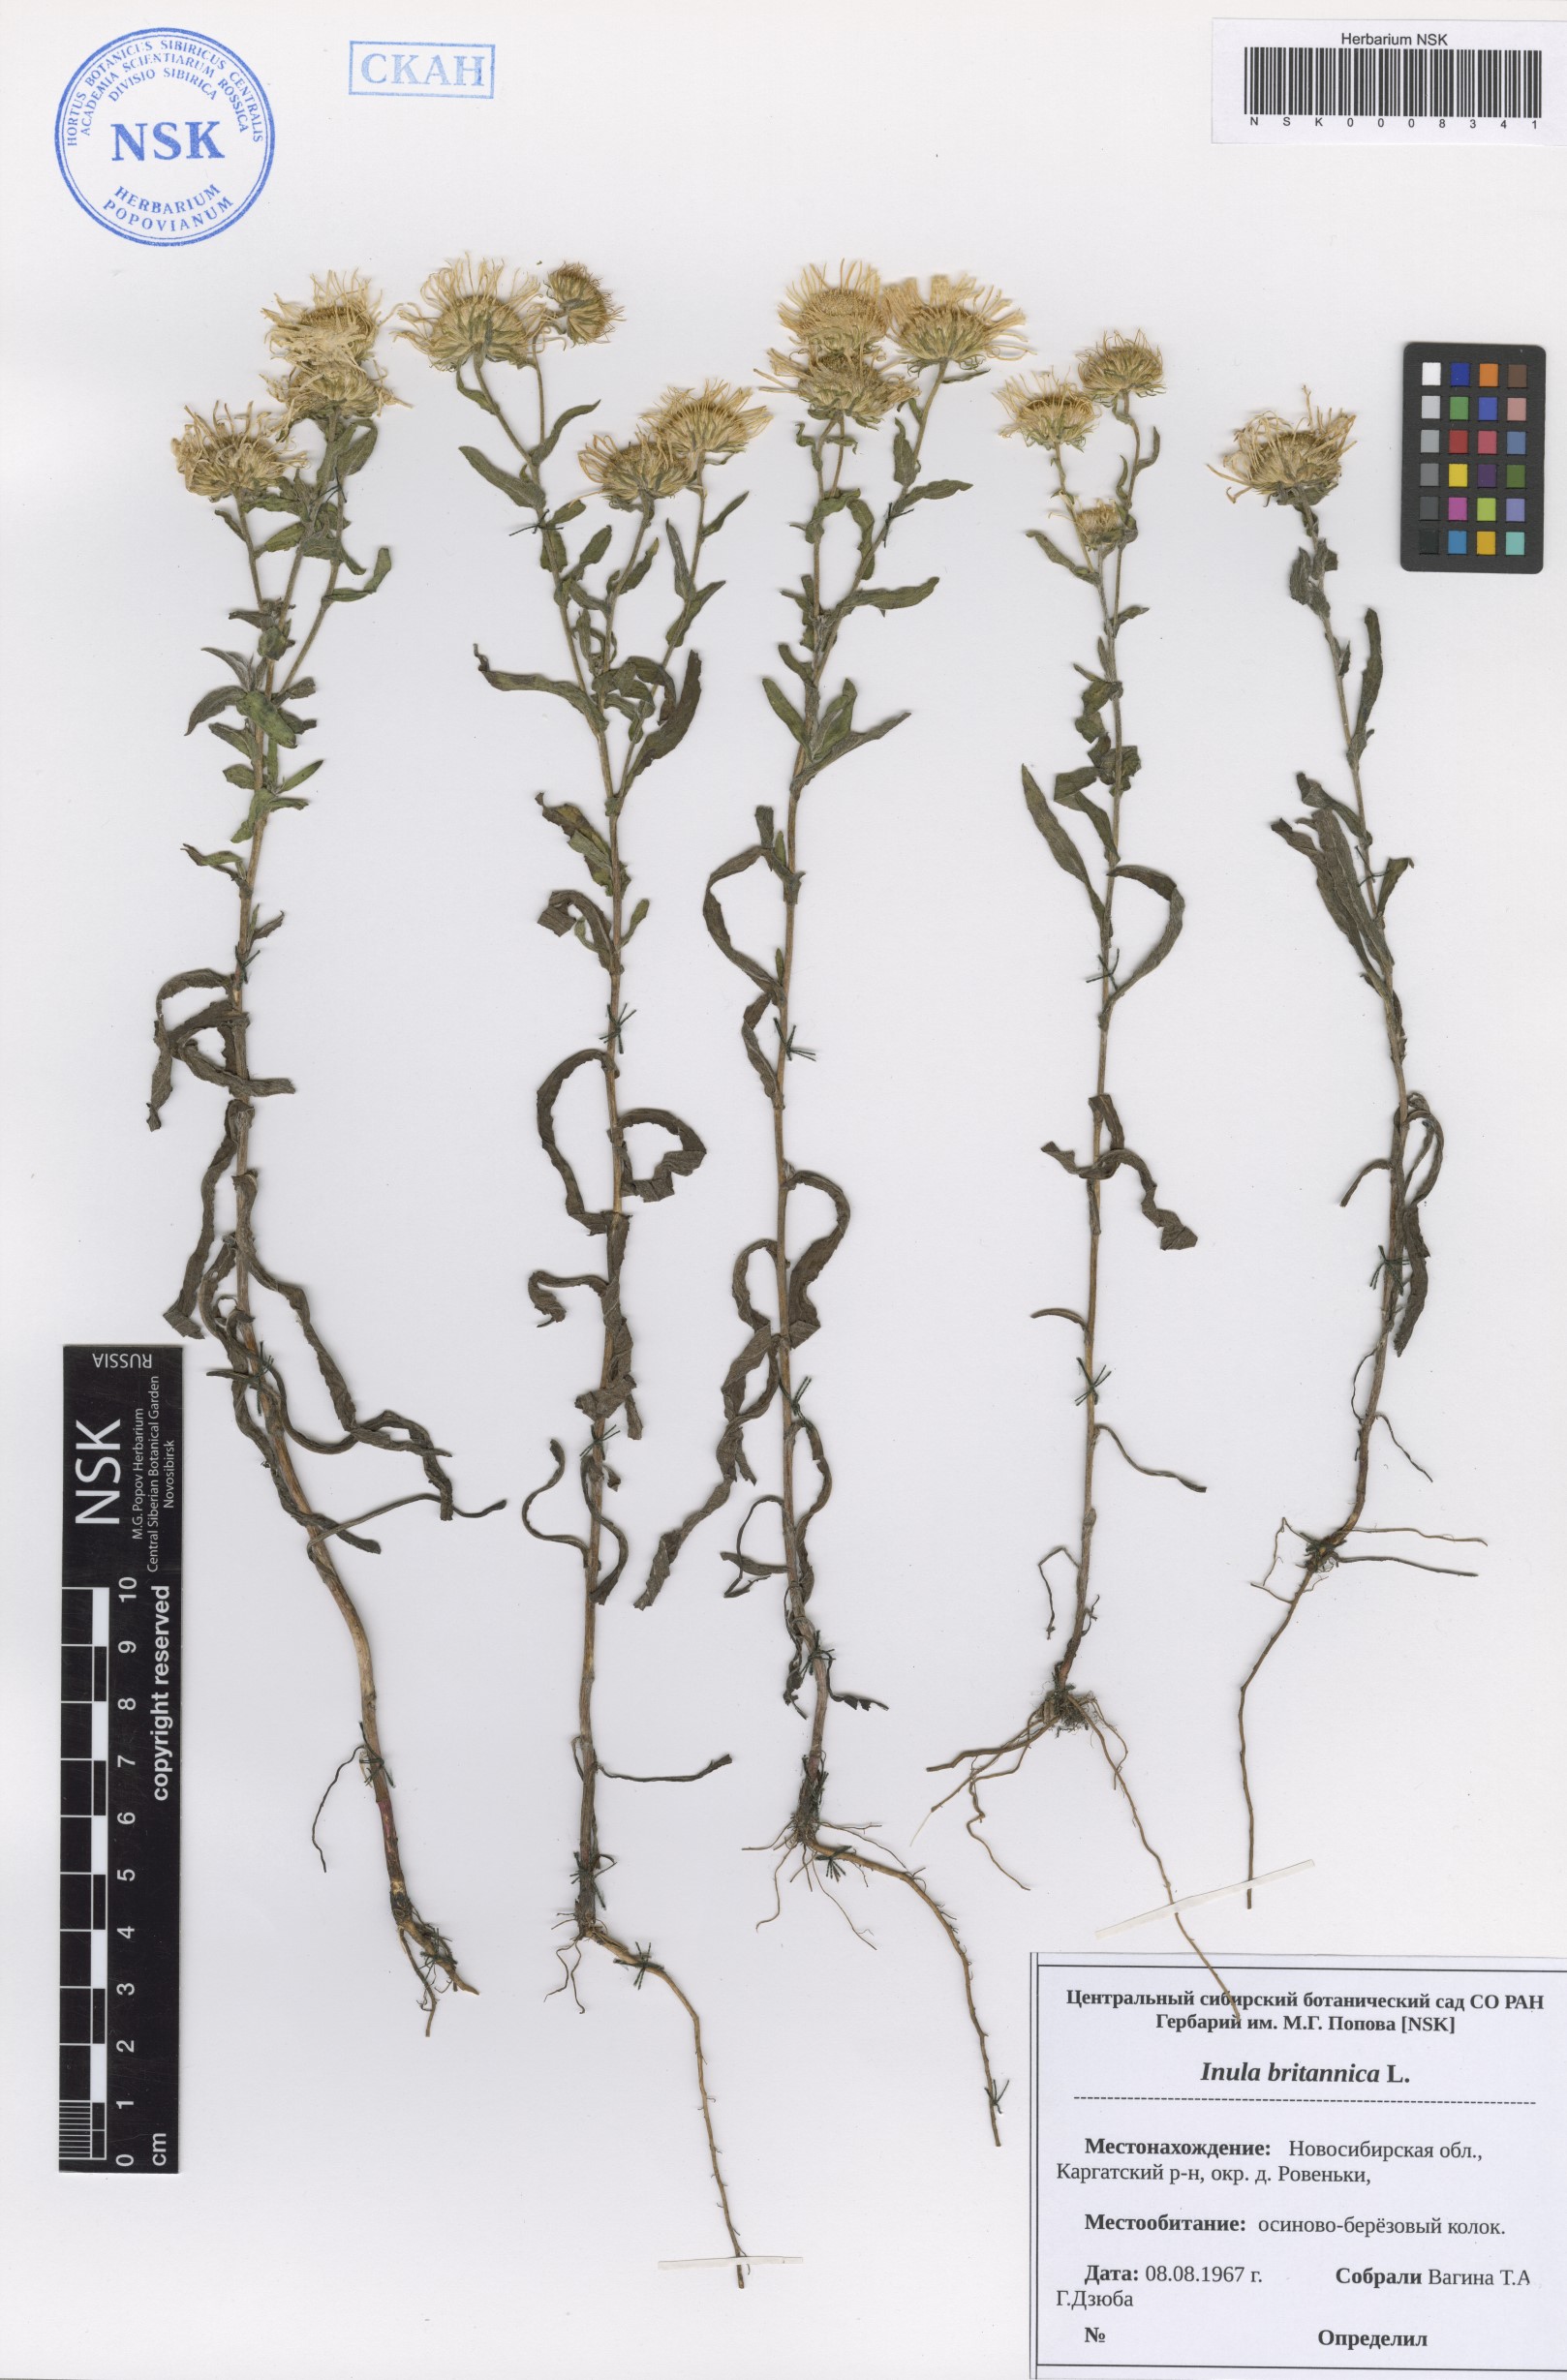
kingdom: Plantae
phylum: Tracheophyta
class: Magnoliopsida
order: Asterales
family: Asteraceae
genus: Pentanema
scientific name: Pentanema britannicum
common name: British elecampane
